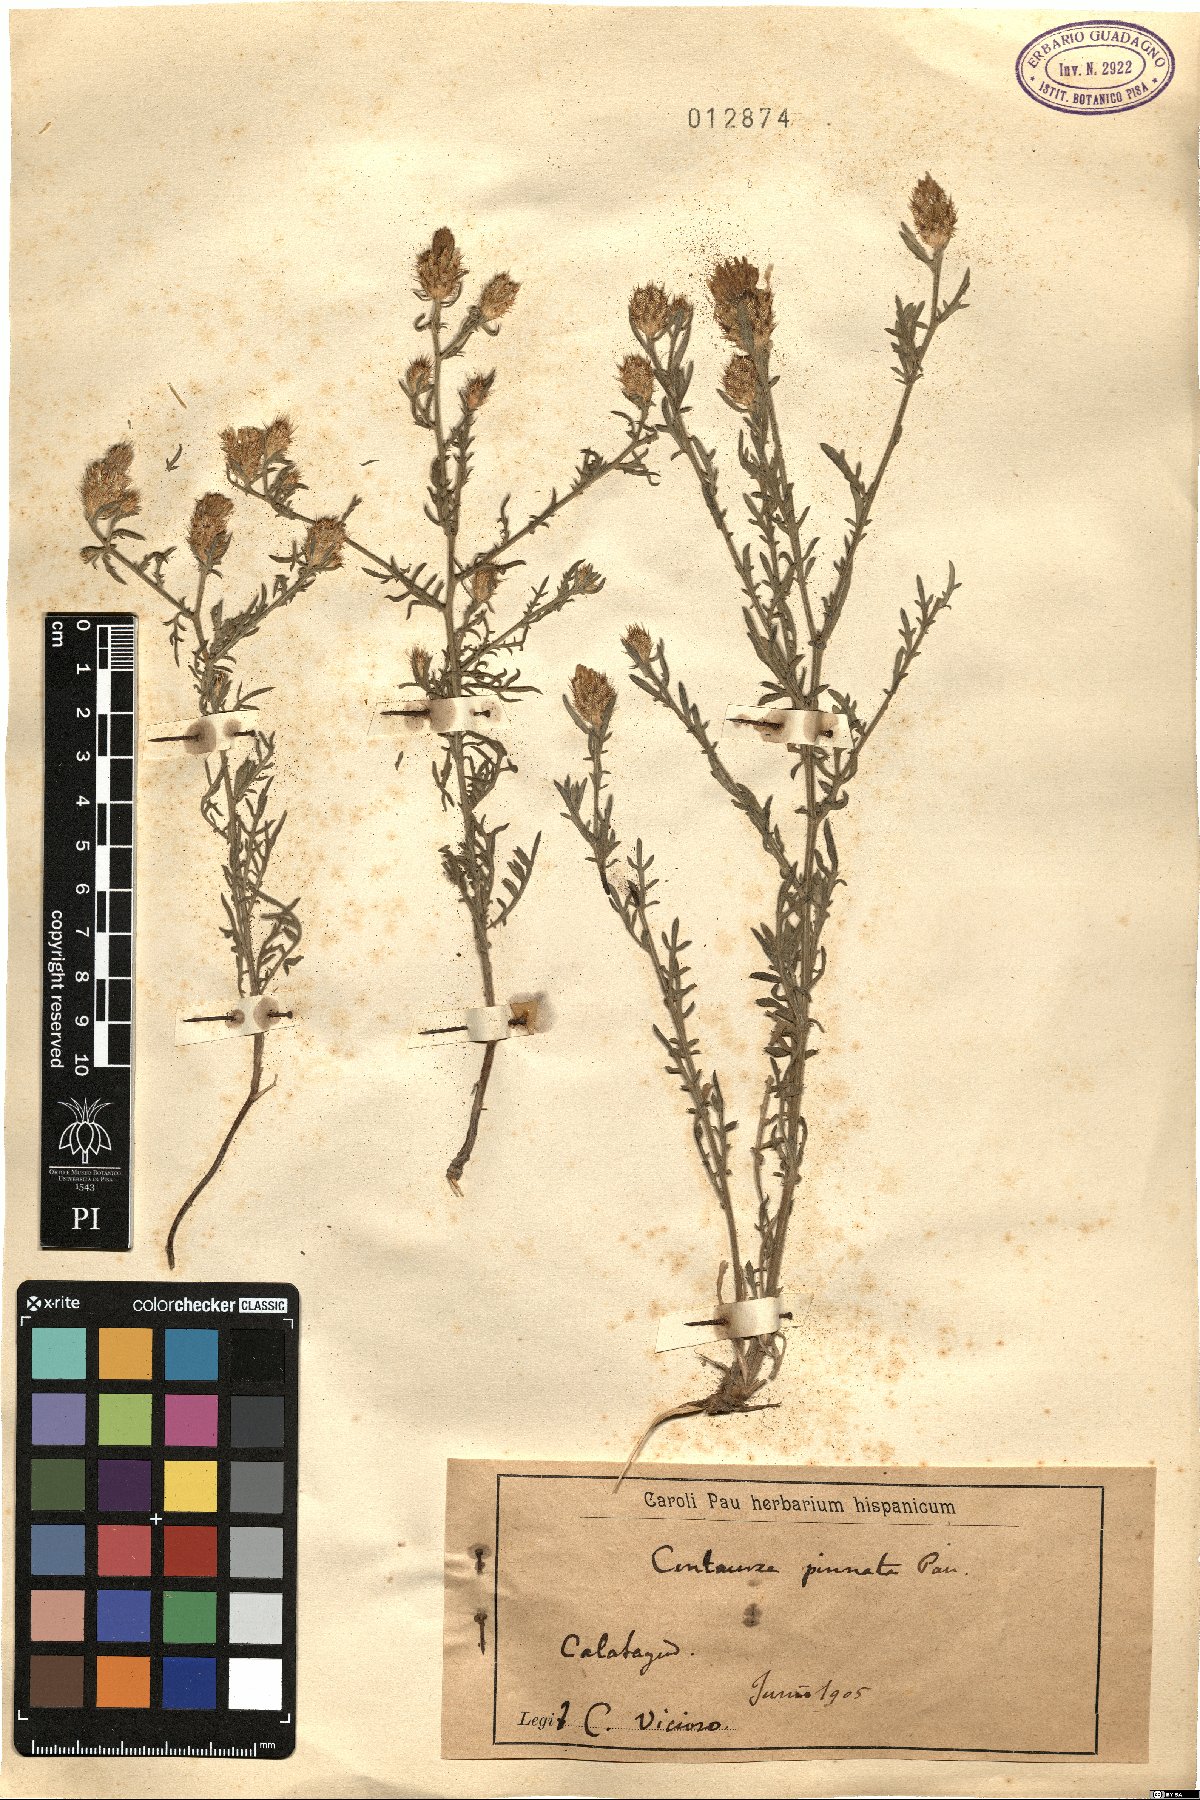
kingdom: Plantae
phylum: Tracheophyta
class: Magnoliopsida
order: Asterales
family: Asteraceae
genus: Centaurea
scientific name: Centaurea pinnata
